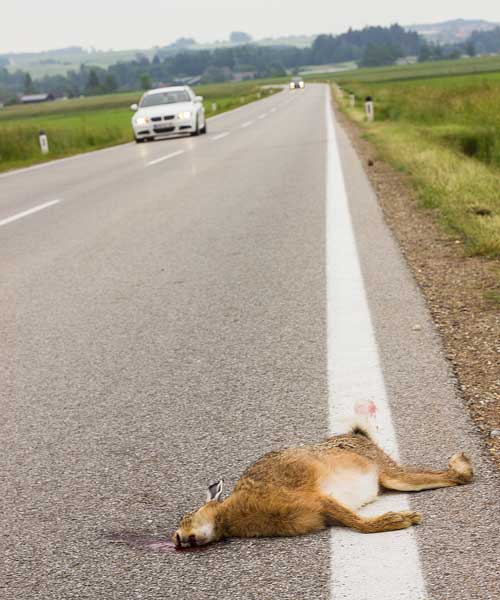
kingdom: Animalia
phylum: Chordata
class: Mammalia
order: Lagomorpha
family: Leporidae
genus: Lepus
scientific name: Lepus europaeus
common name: European hare
